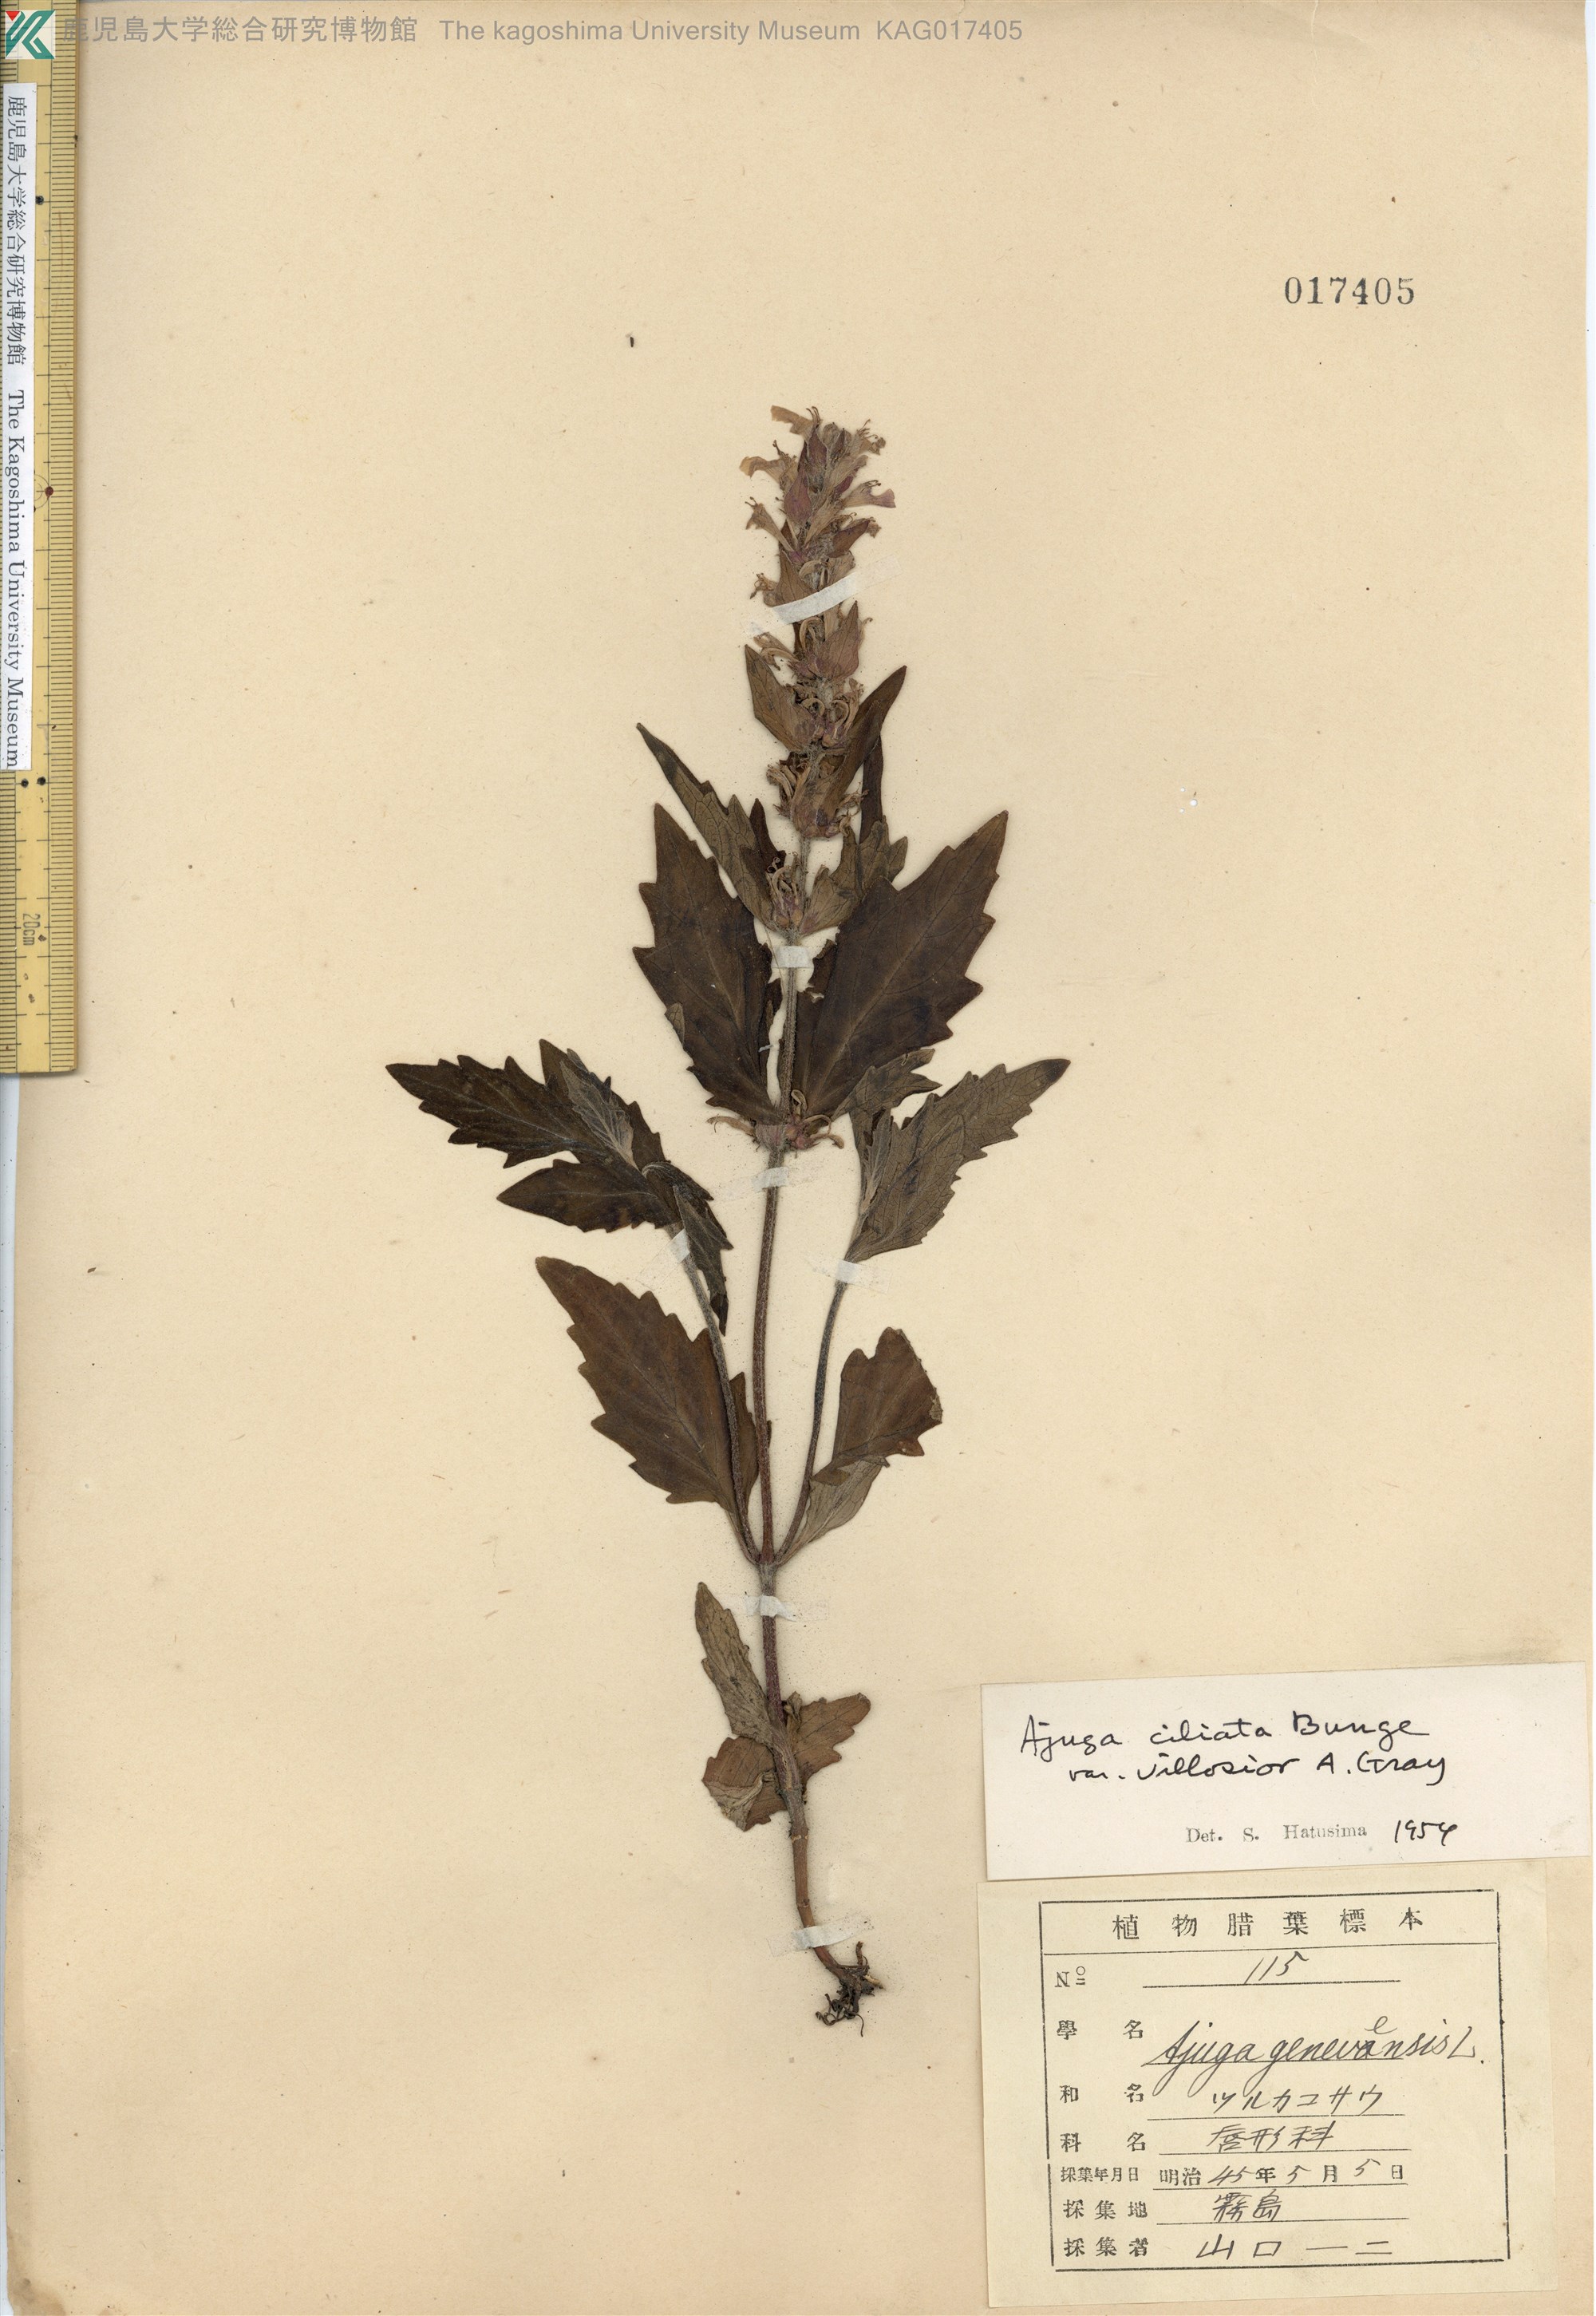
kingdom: Plantae
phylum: Tracheophyta
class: Magnoliopsida
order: Lamiales
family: Lamiaceae
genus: Ajuga
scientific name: Ajuga ciliata
